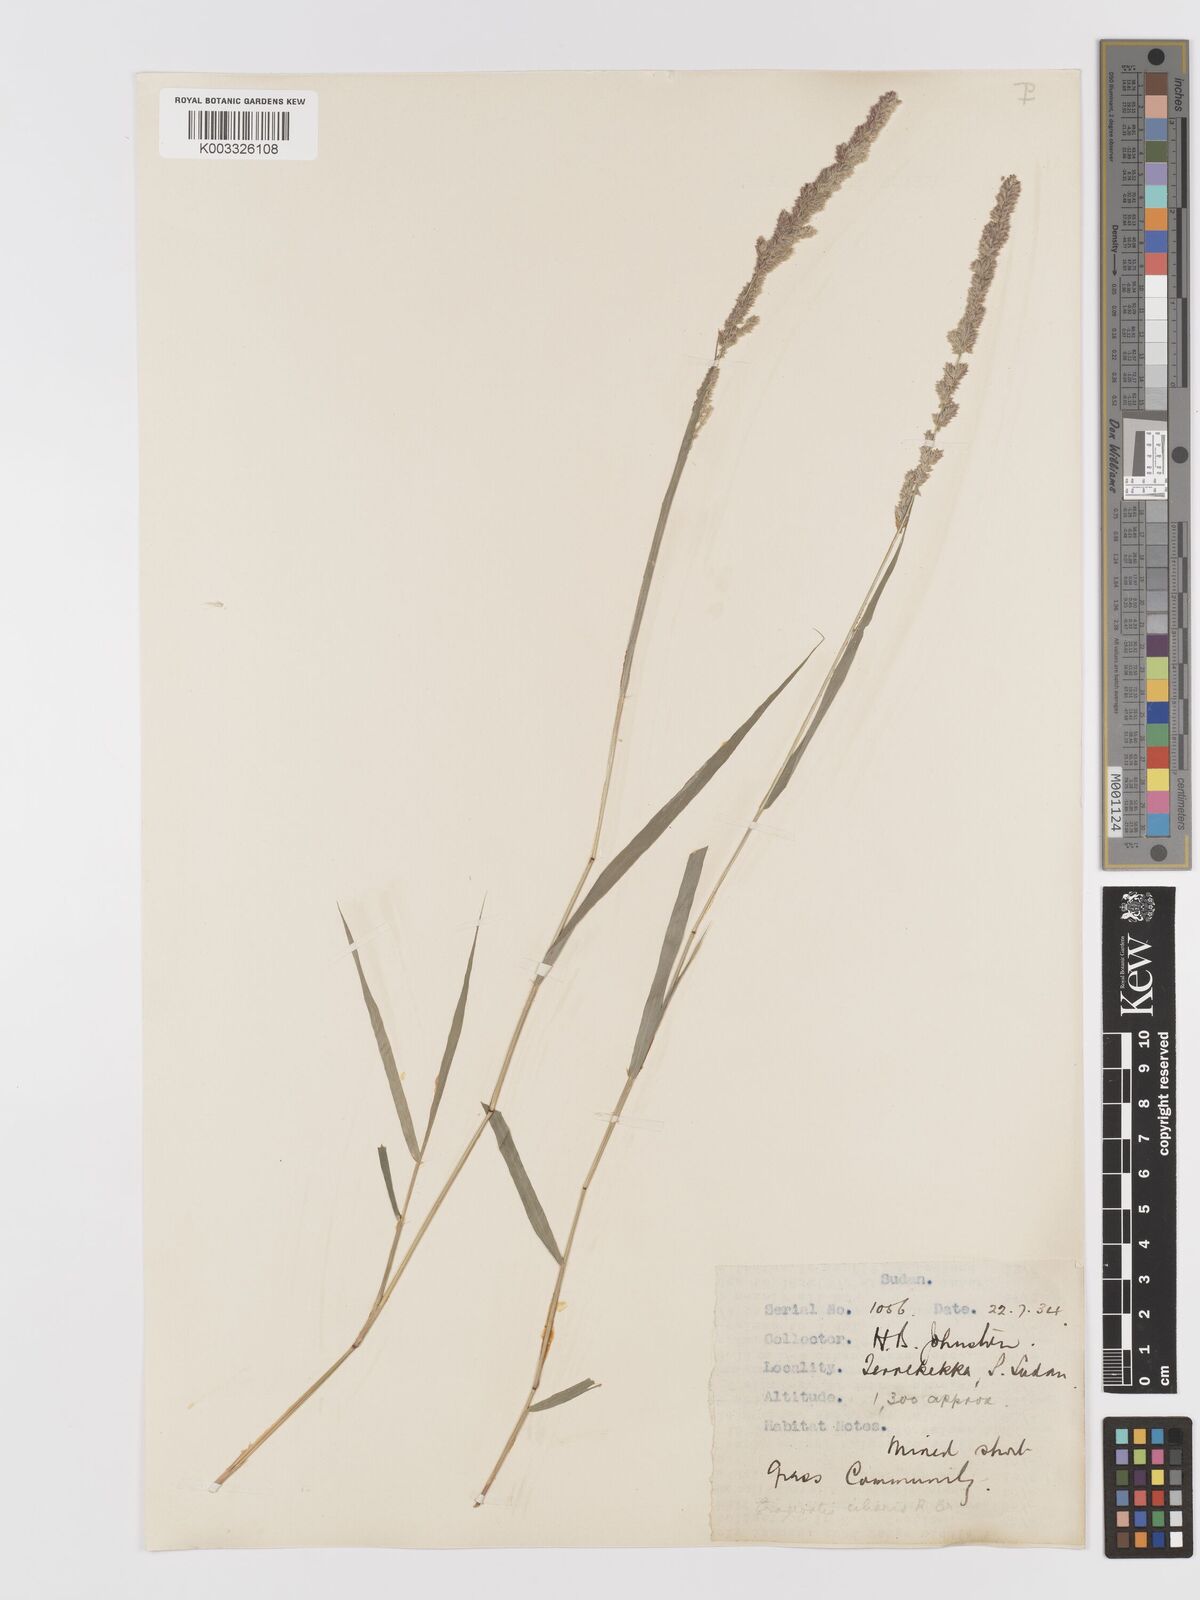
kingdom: Plantae
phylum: Tracheophyta
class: Liliopsida
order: Poales
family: Poaceae
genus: Eragrostis
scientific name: Eragrostis ciliaris
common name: Gophertail lovegrass
